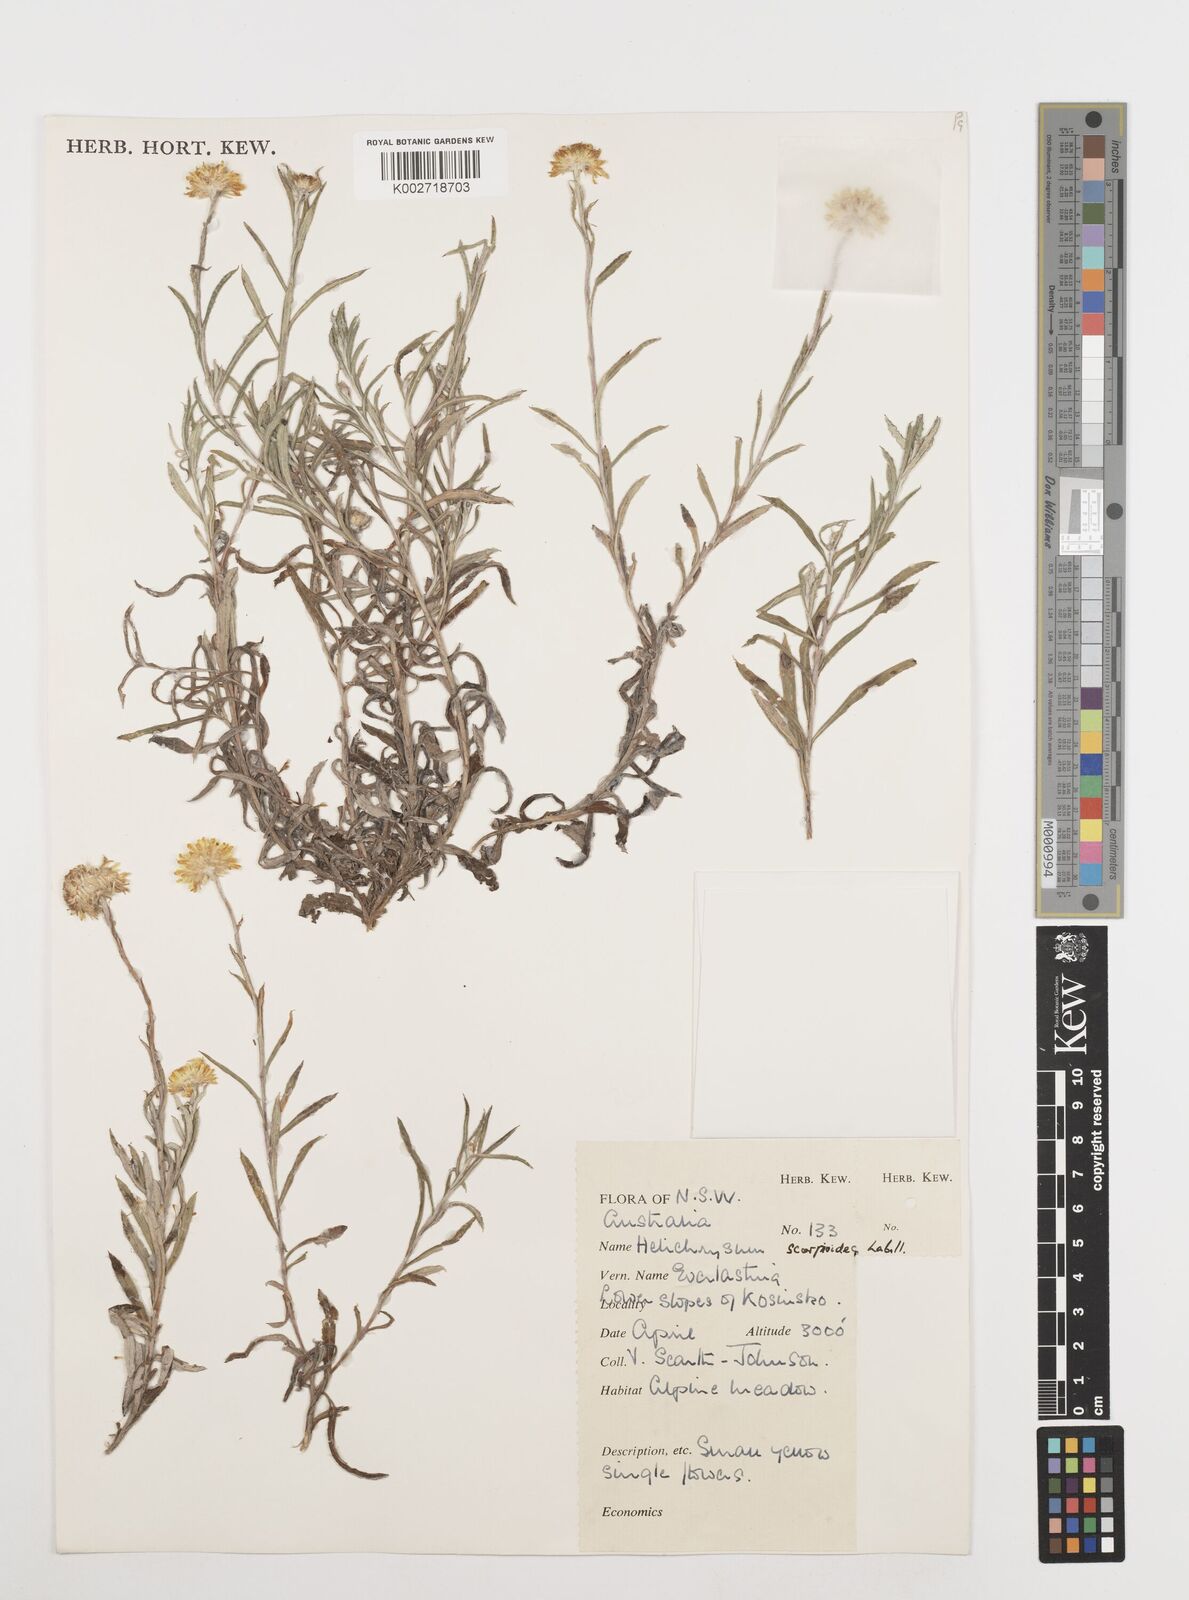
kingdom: Plantae
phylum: Tracheophyta
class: Magnoliopsida
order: Asterales
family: Asteraceae
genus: Coronidium
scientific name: Coronidium scorpioides
